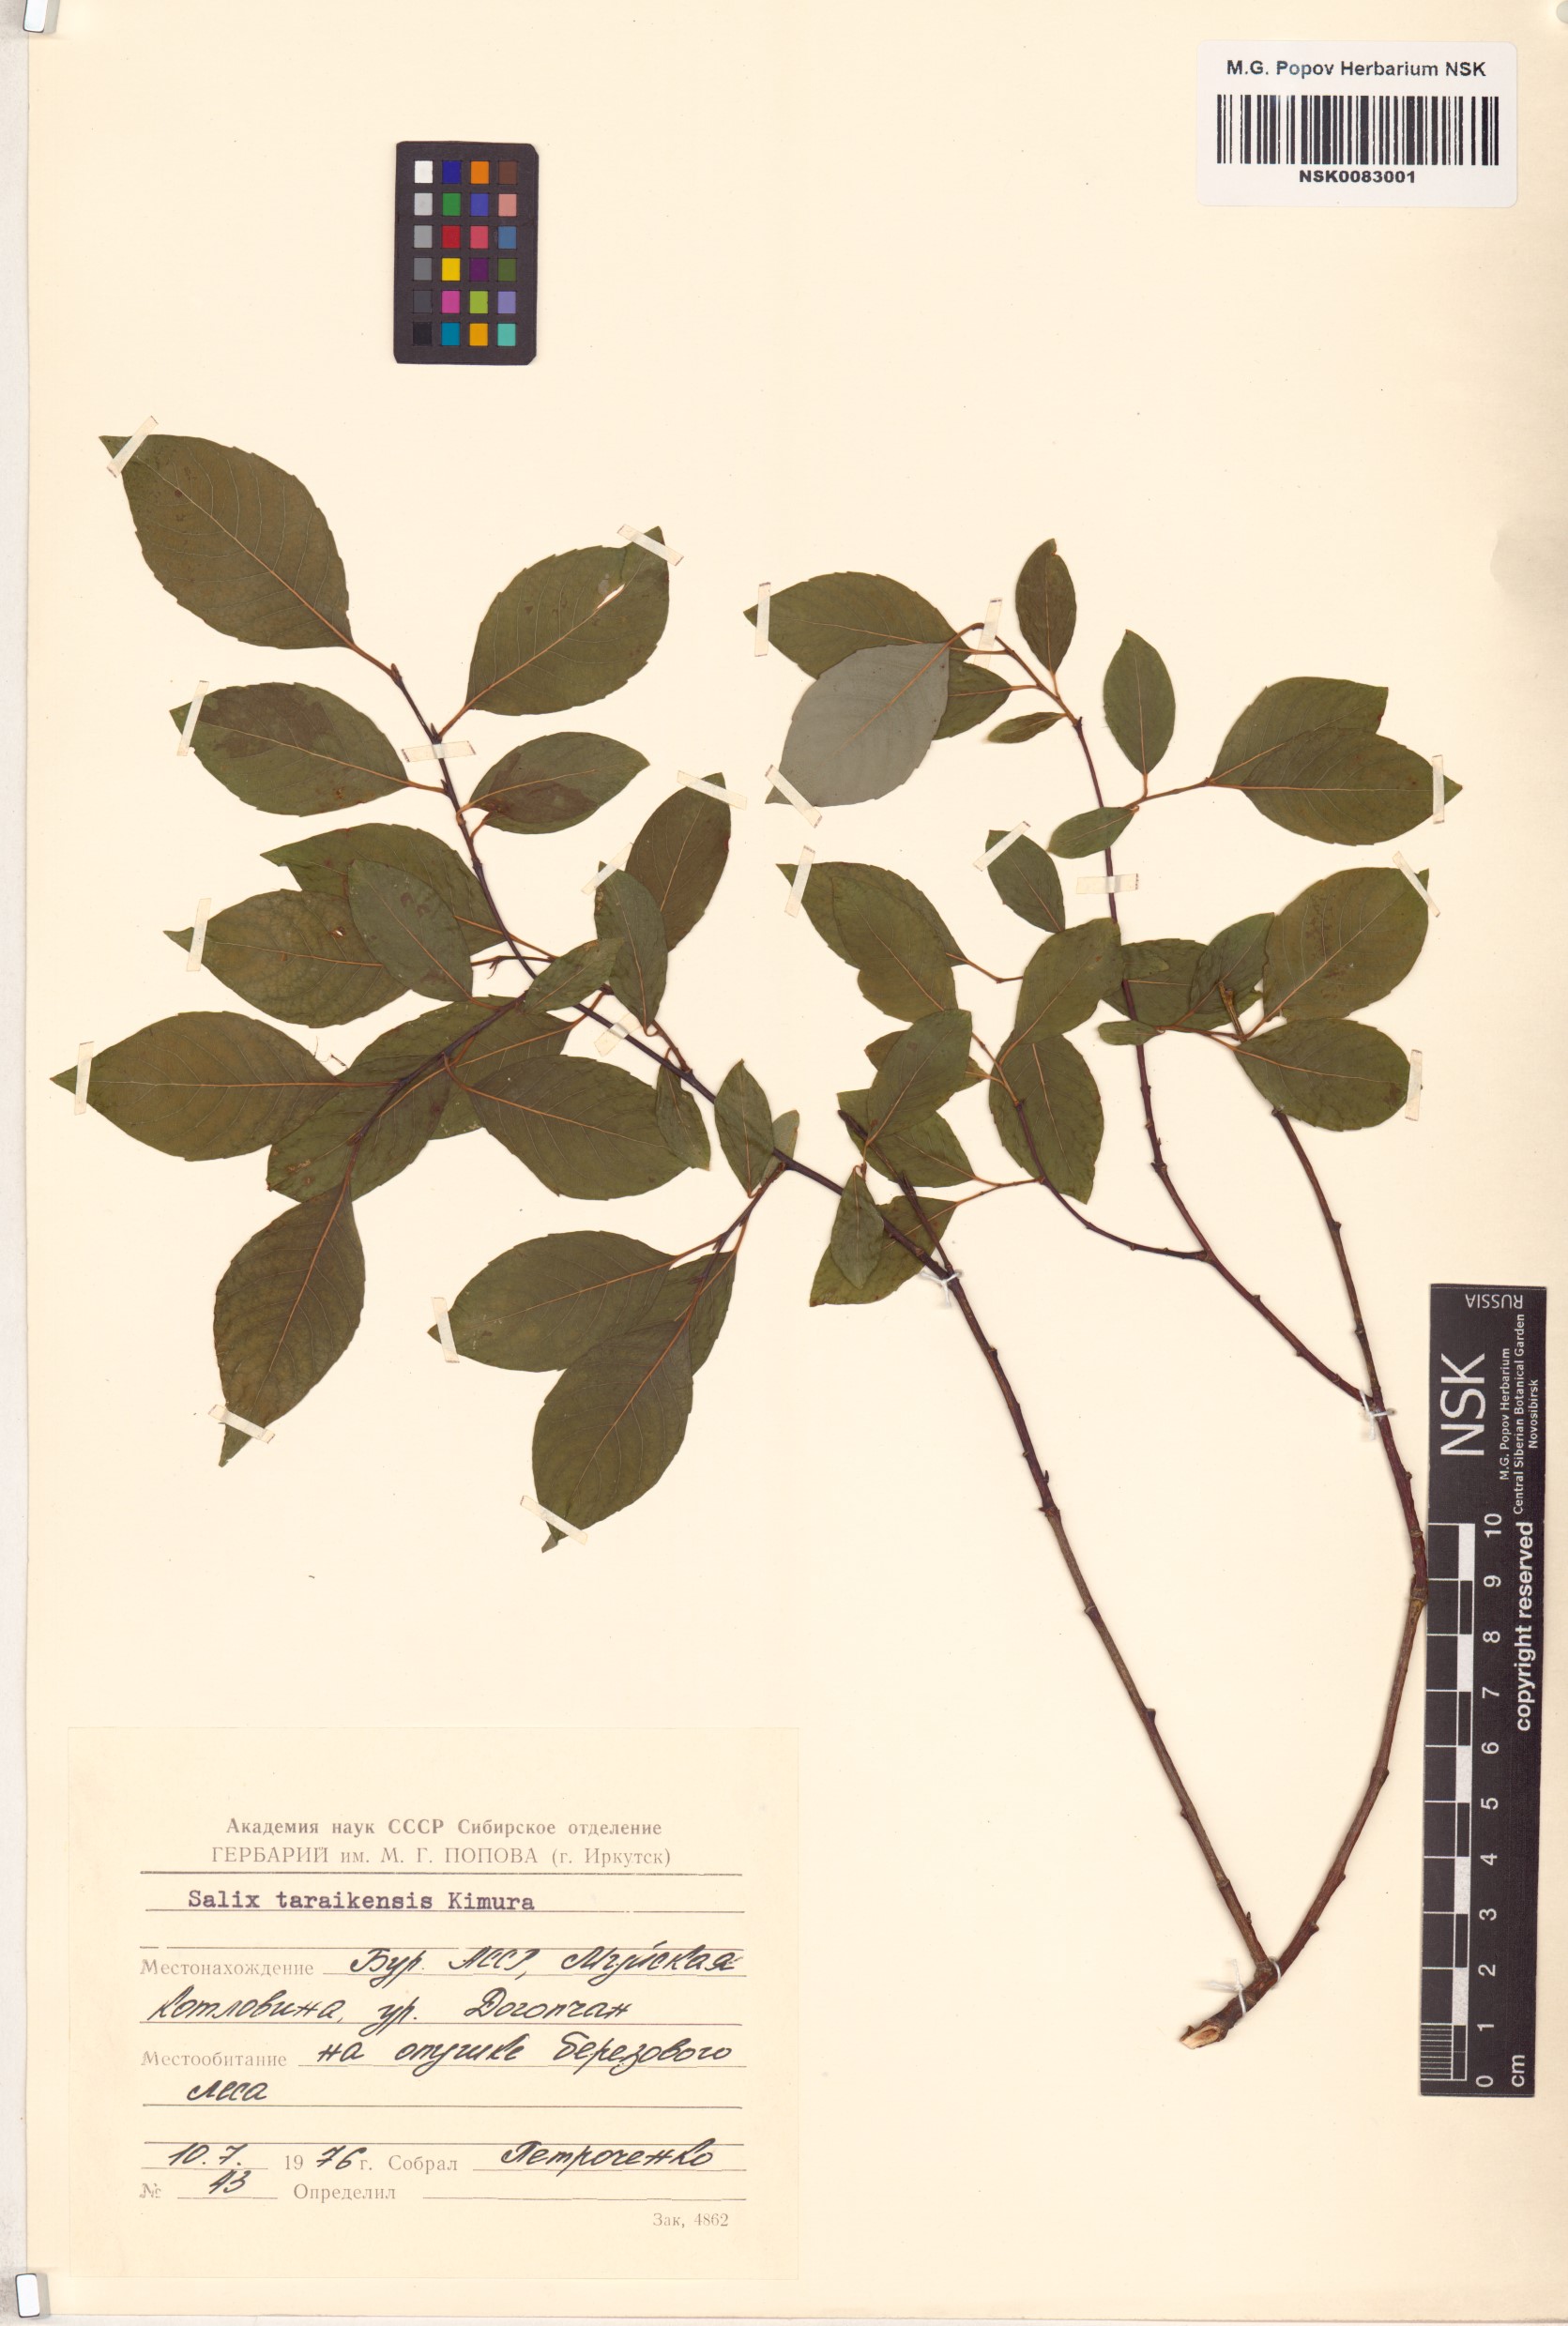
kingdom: Plantae
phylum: Tracheophyta
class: Magnoliopsida
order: Malpighiales
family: Salicaceae
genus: Salix
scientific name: Salix taraikensis
